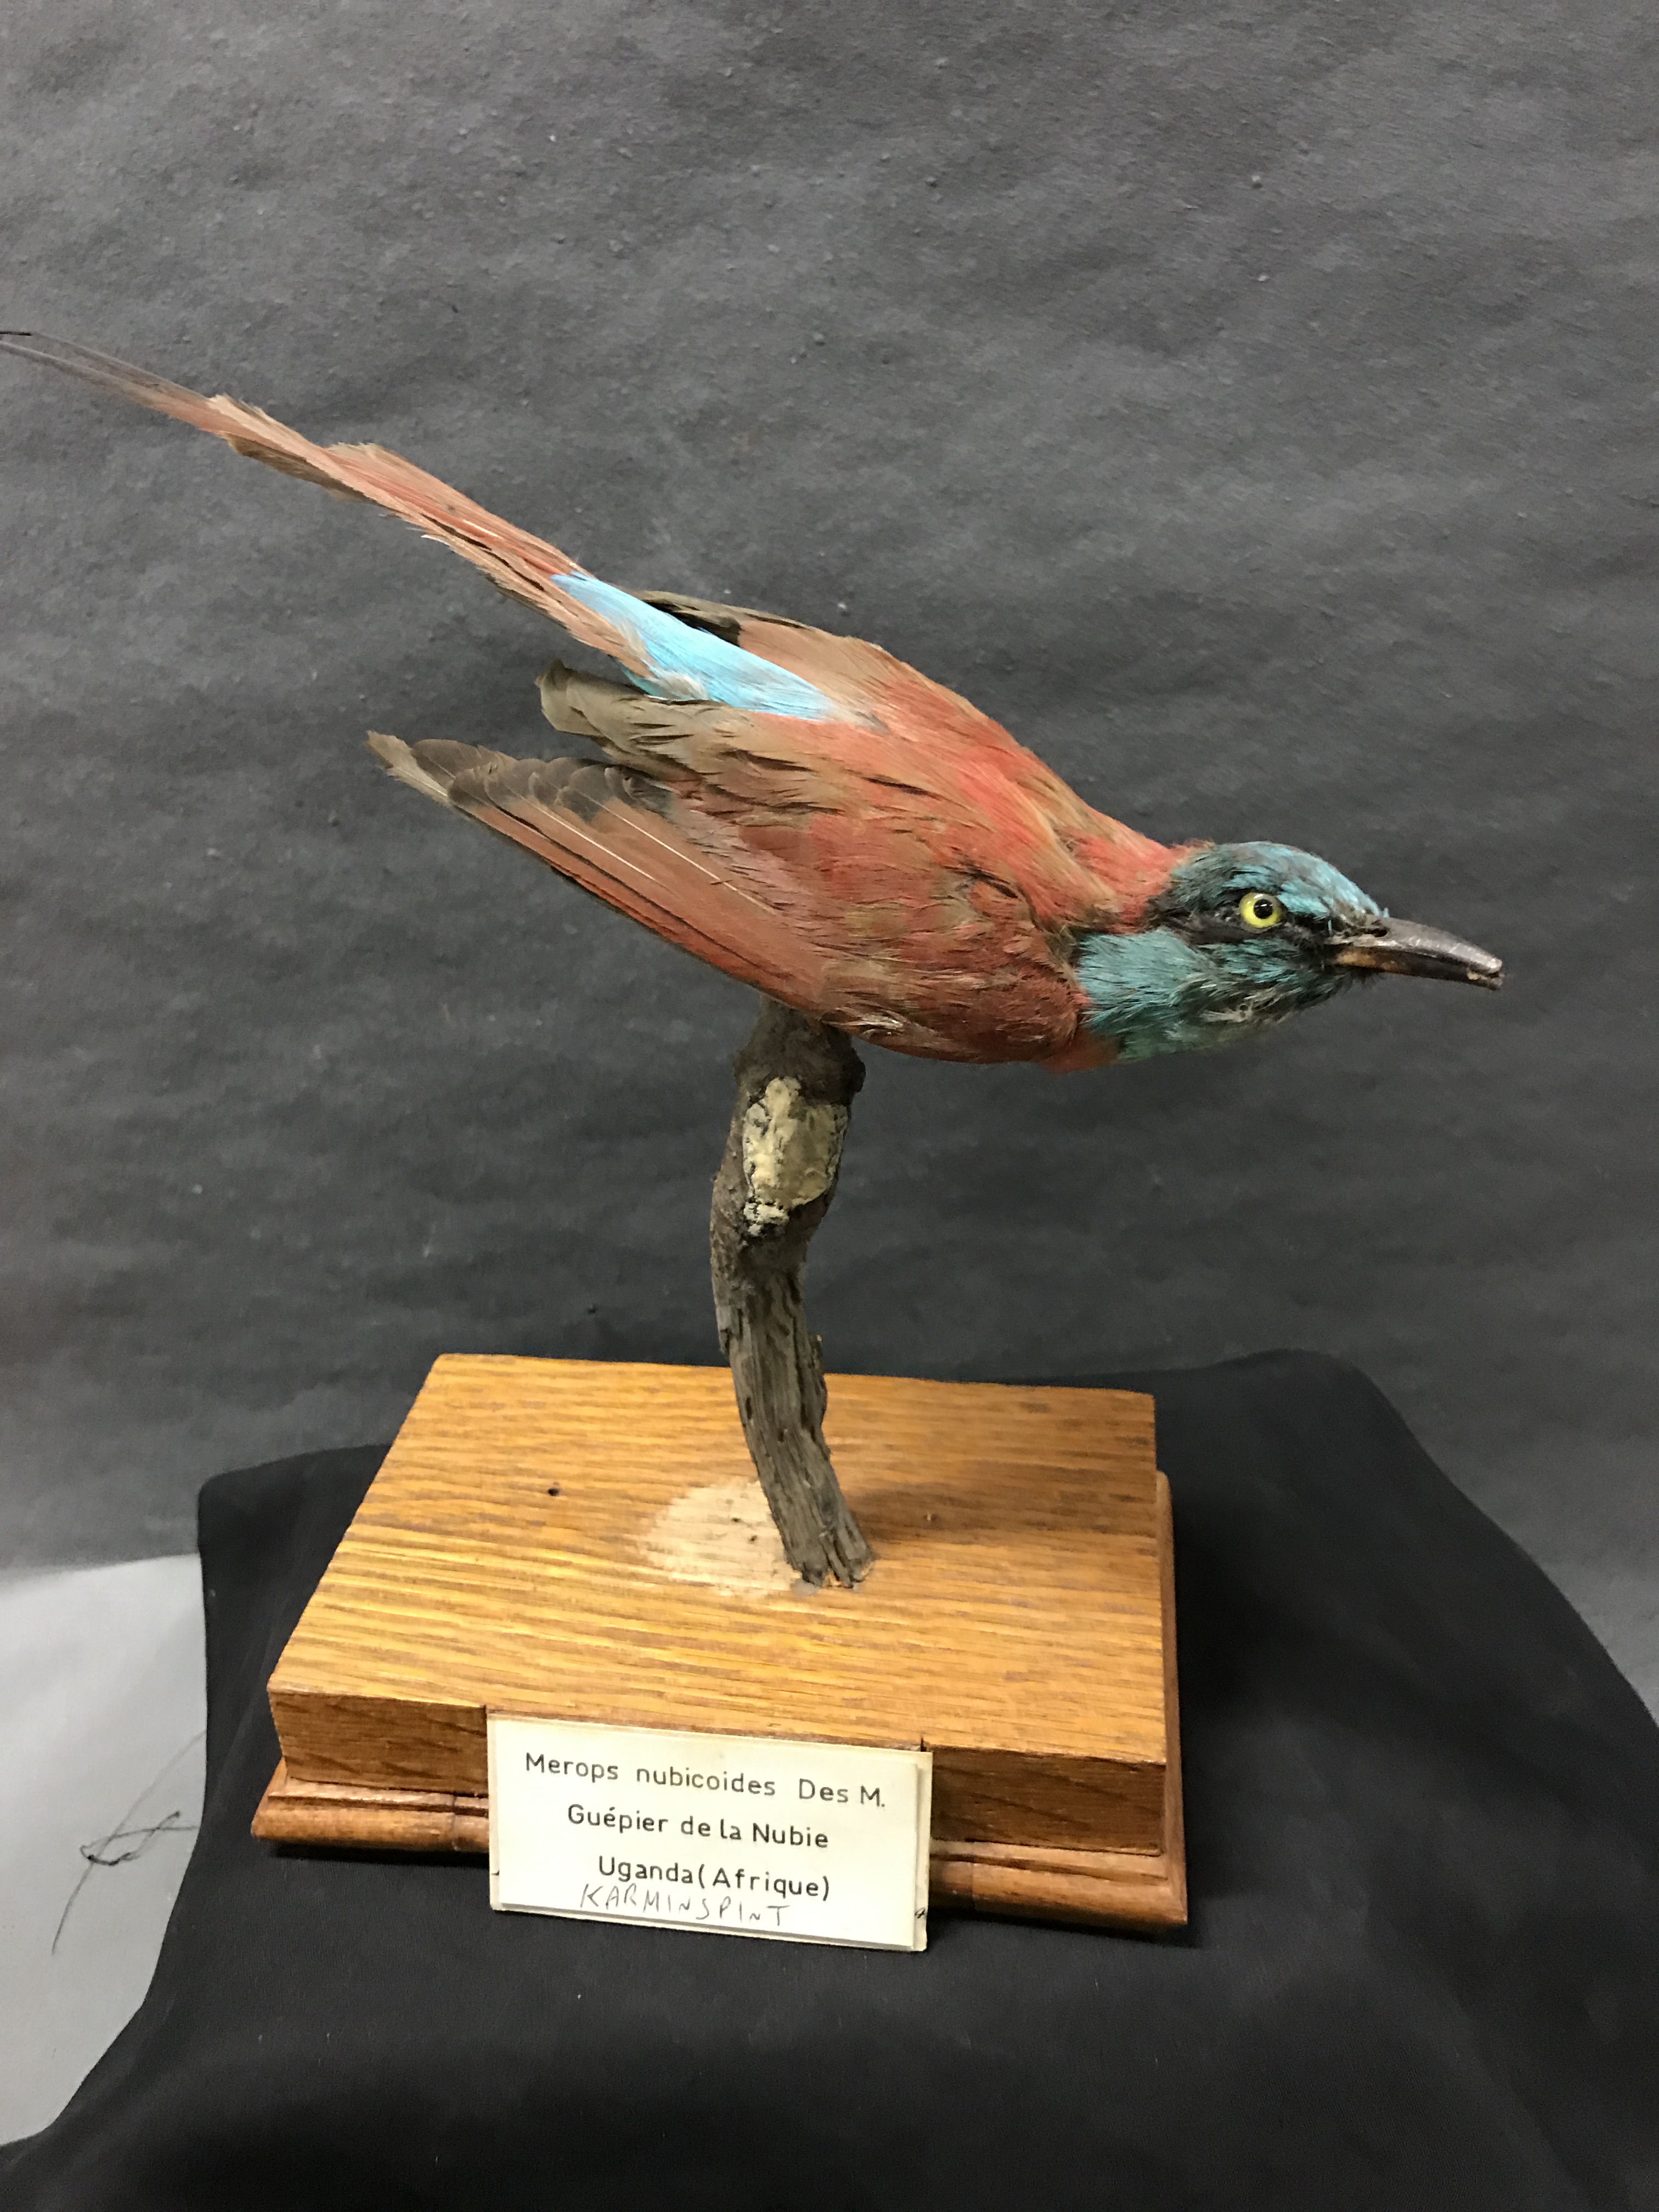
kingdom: Animalia
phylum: Chordata
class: Aves
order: Coraciiformes
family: Meropidae
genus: Merops
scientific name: Merops nubicus
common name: Northern carmine bee-eater
